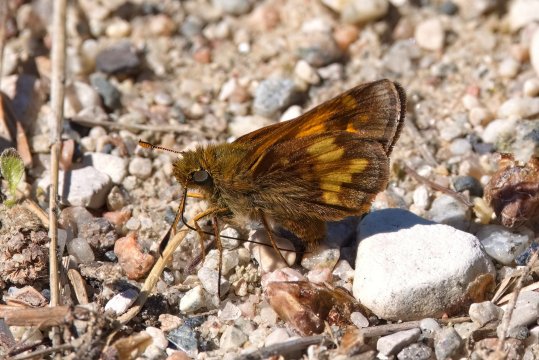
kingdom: Animalia
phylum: Arthropoda
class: Insecta
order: Lepidoptera
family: Hesperiidae
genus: Lon
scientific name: Lon hobomok
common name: Hobomok Skipper
